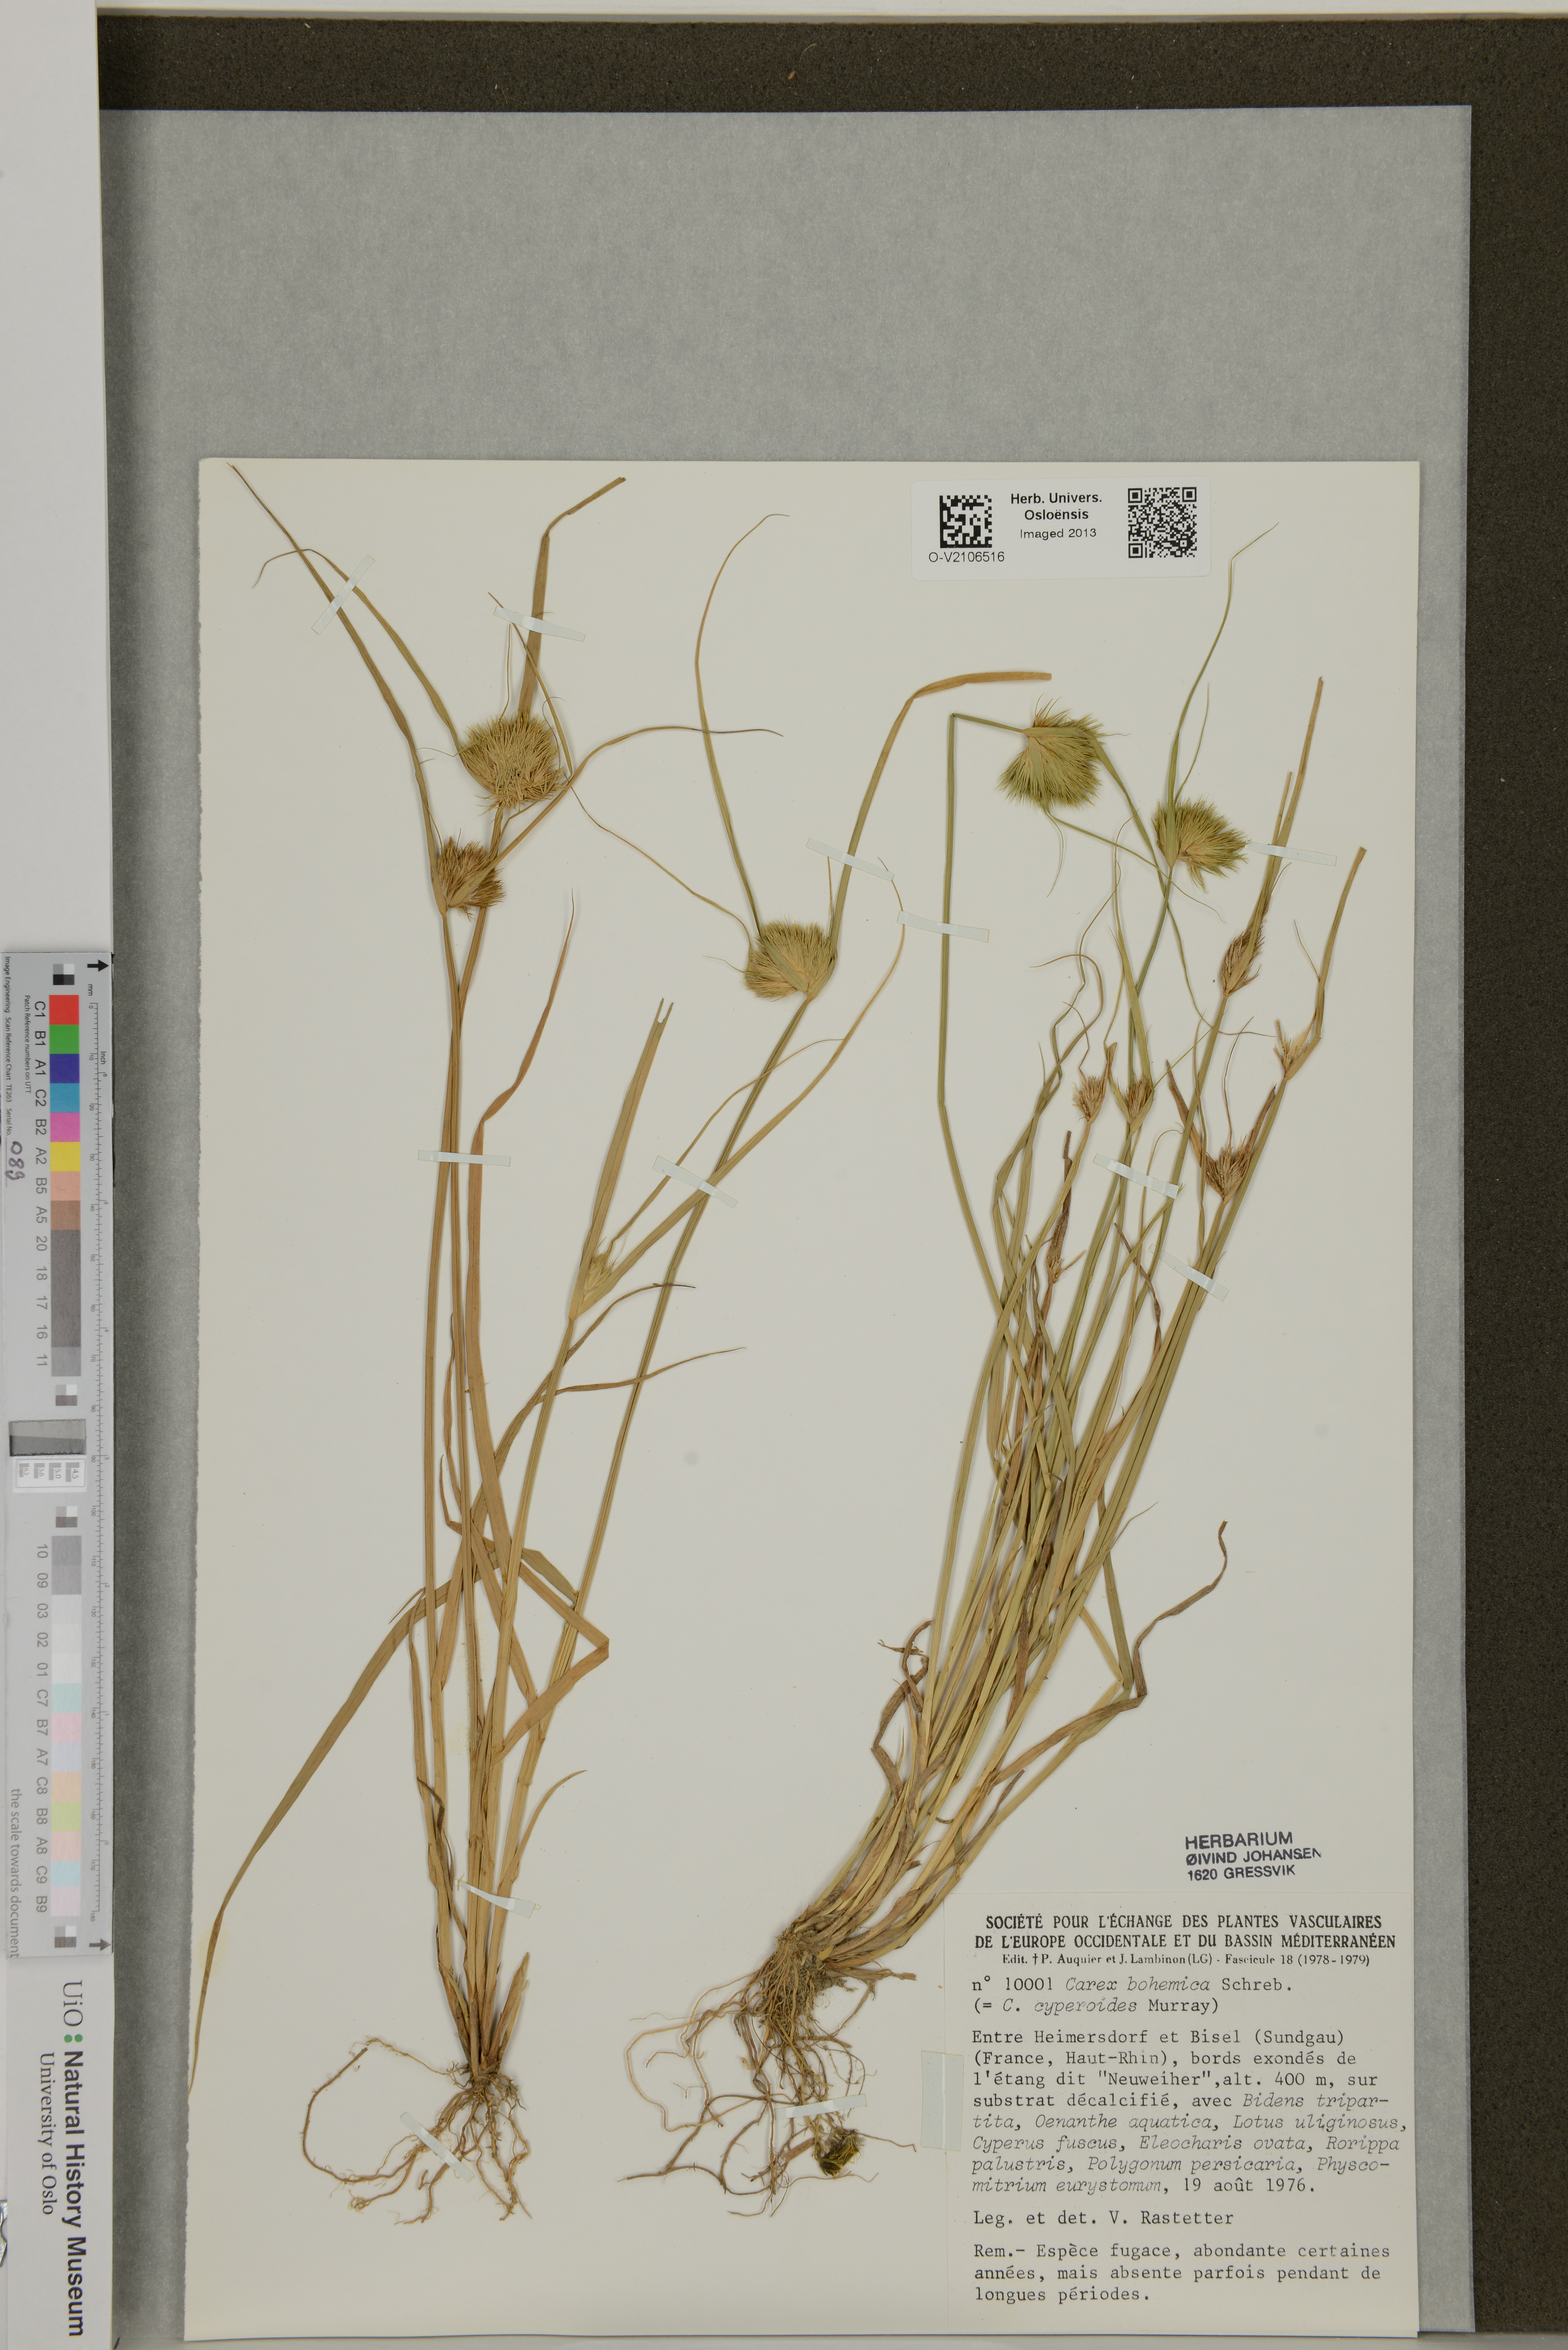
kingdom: Plantae
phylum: Tracheophyta
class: Liliopsida
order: Poales
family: Cyperaceae
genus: Carex
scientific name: Carex bohemica
